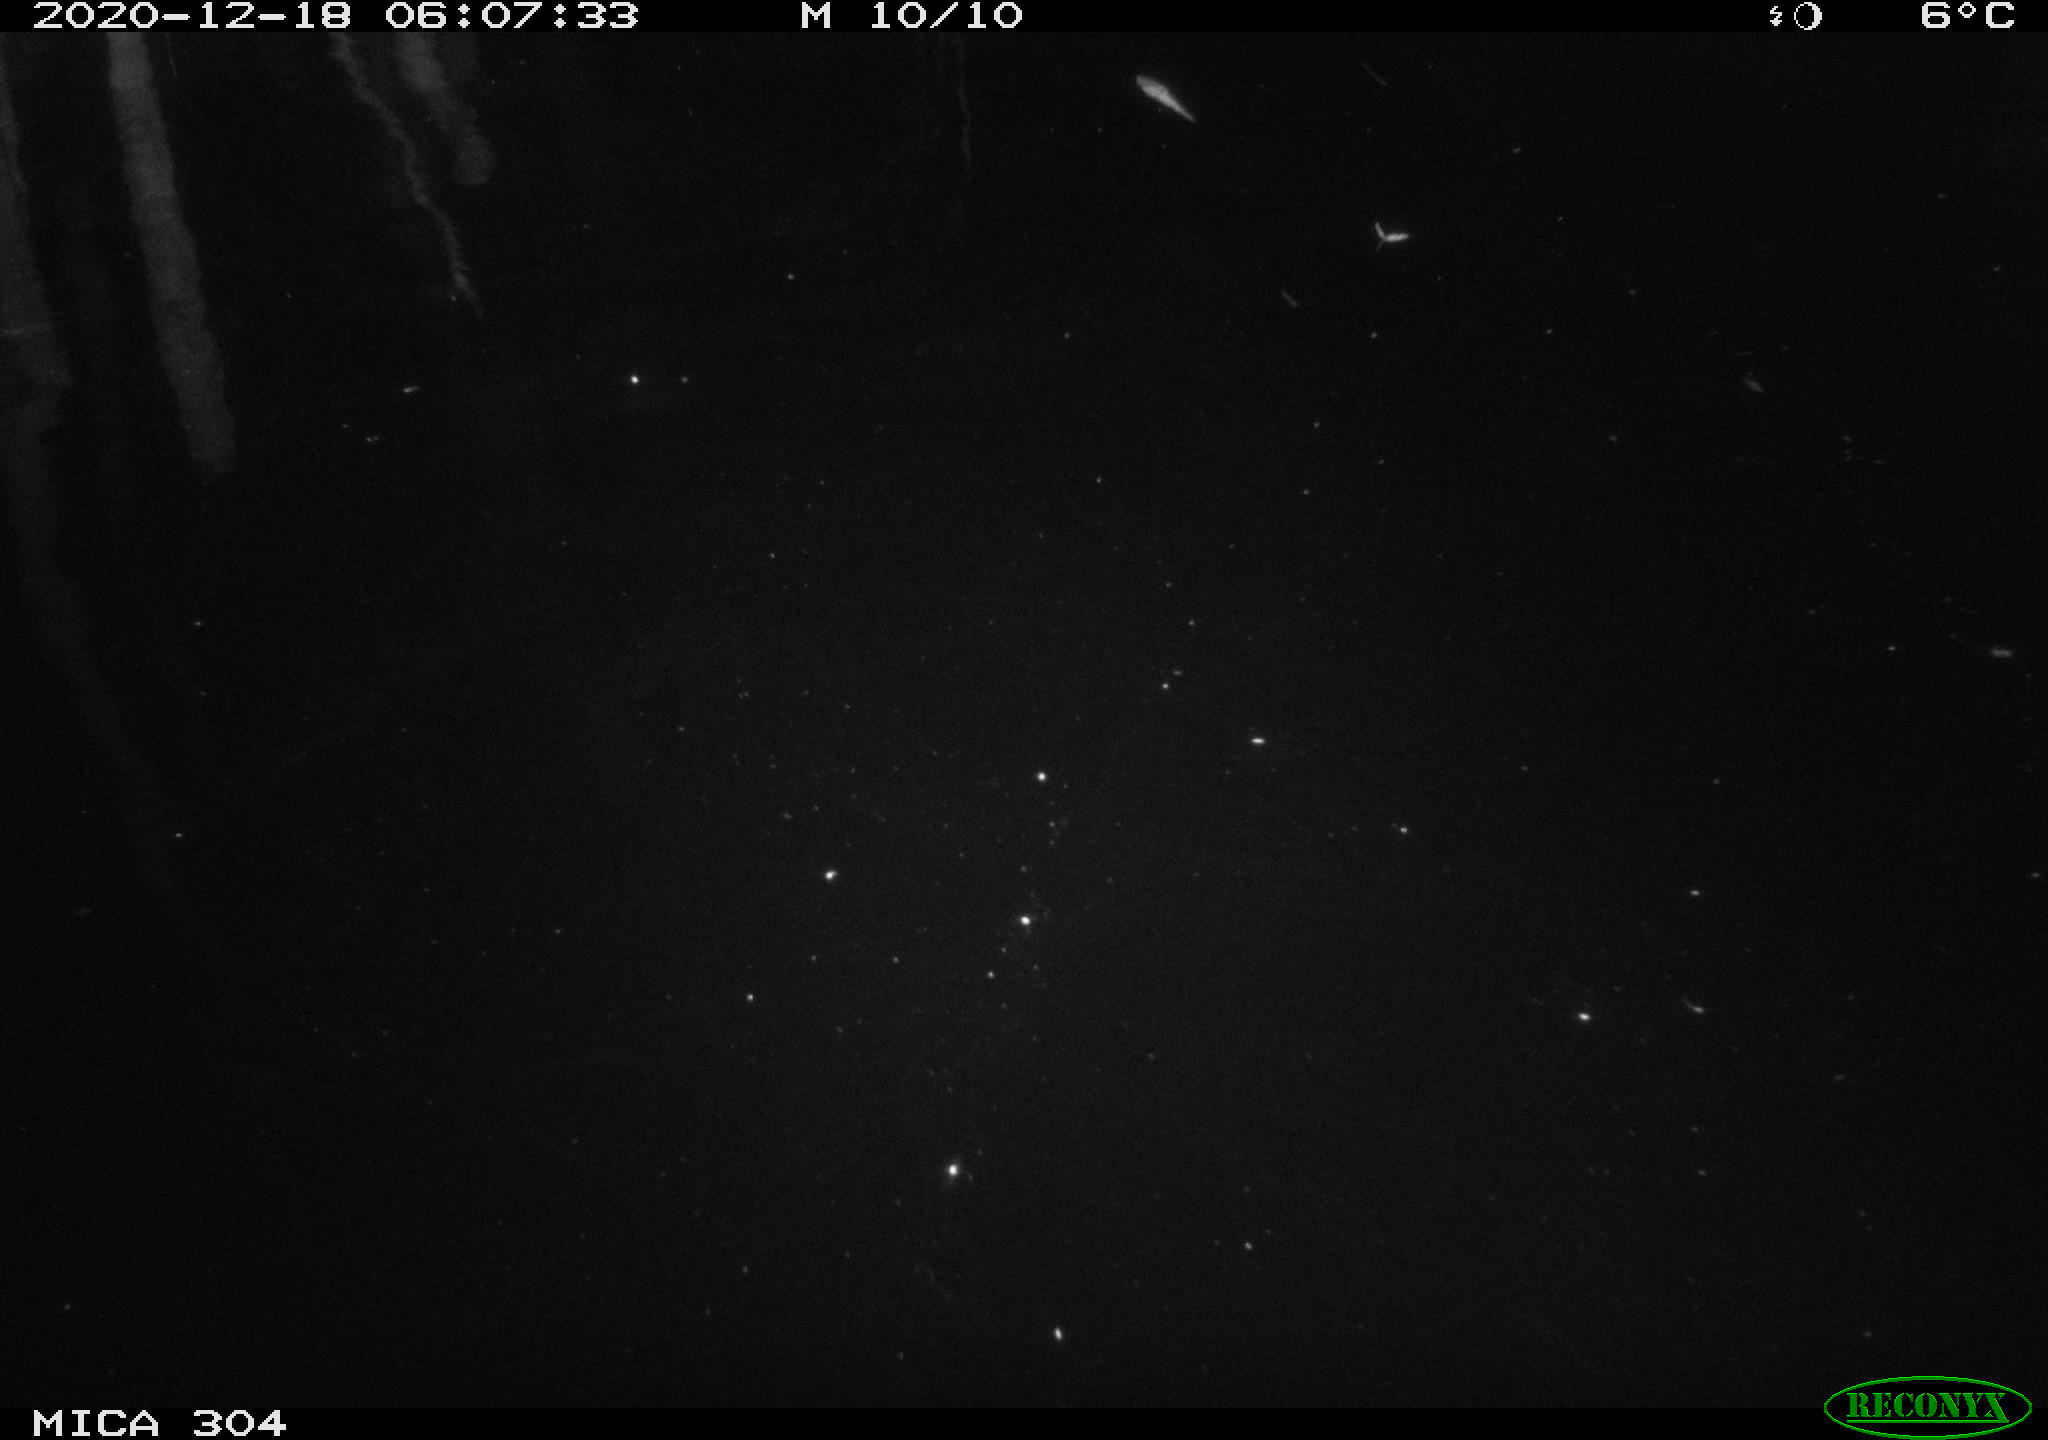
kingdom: Animalia
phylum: Chordata
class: Aves
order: Anseriformes
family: Anatidae
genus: Anas
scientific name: Anas platyrhynchos
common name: Mallard
